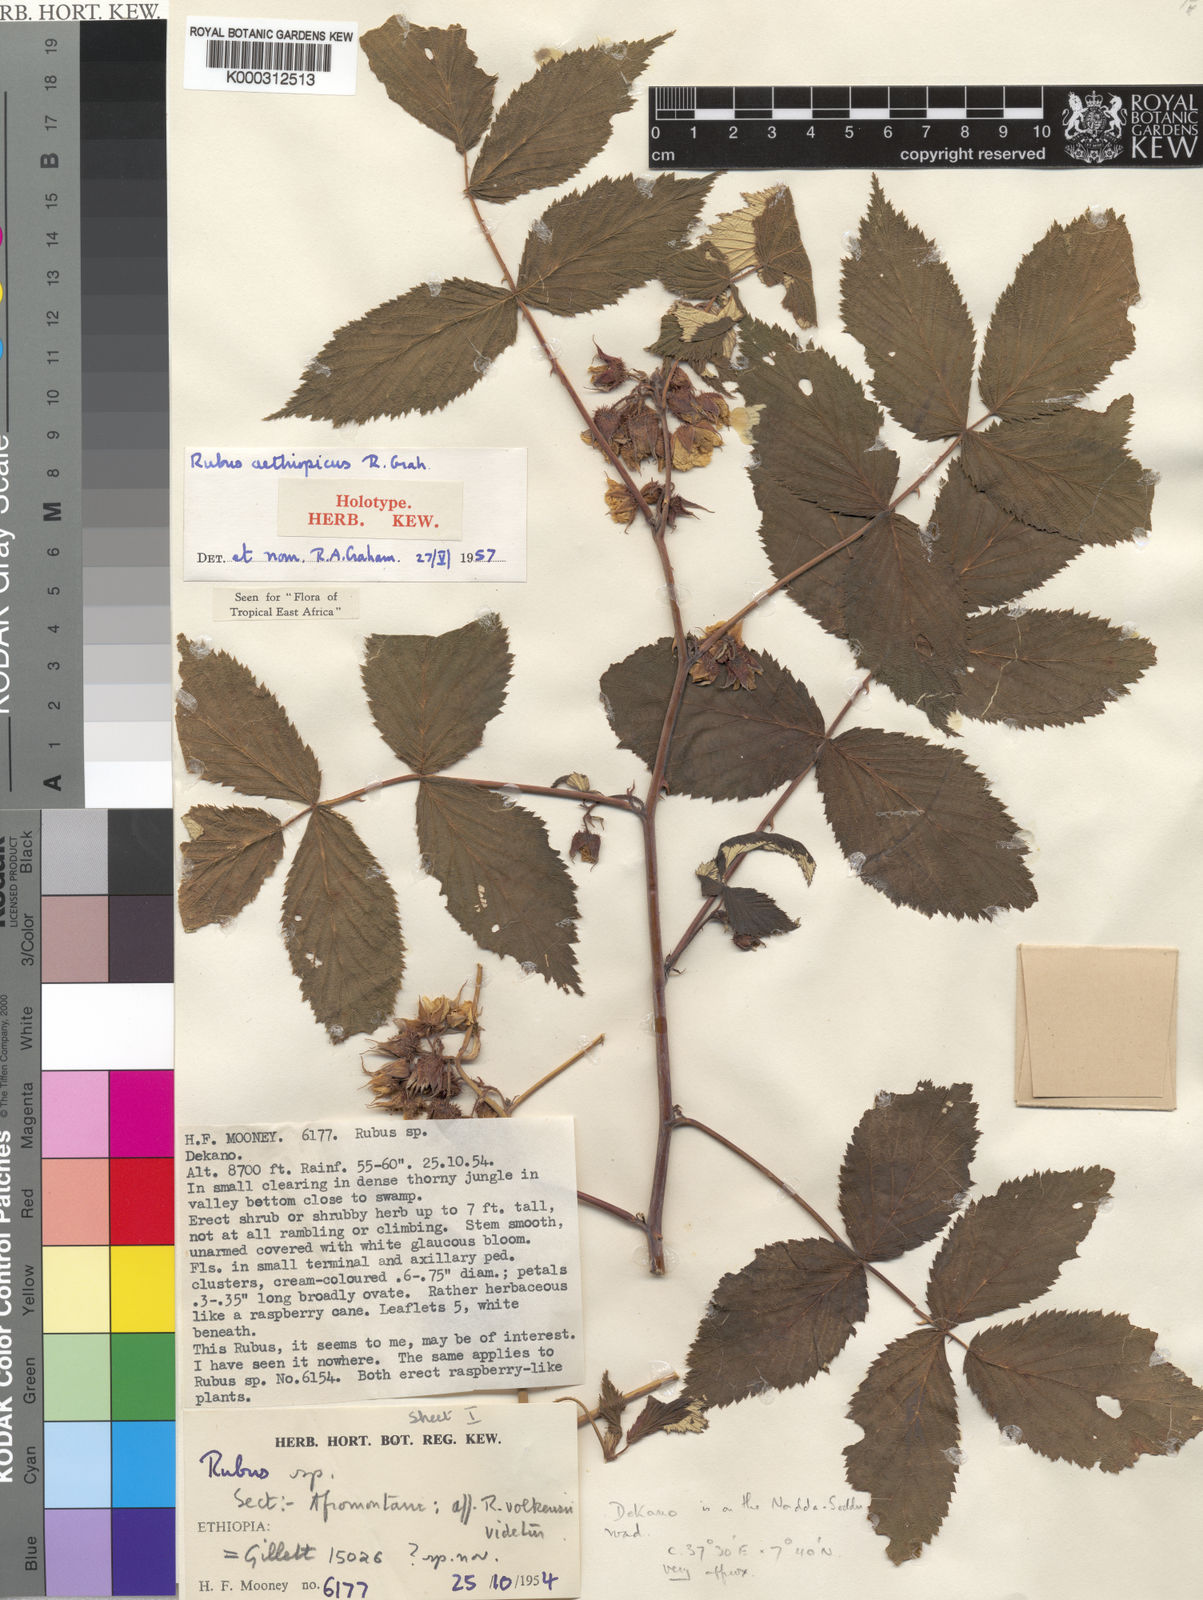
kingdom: Plantae
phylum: Tracheophyta
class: Magnoliopsida
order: Rosales
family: Rosaceae
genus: Rubus
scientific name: Rubus aethiopicus
